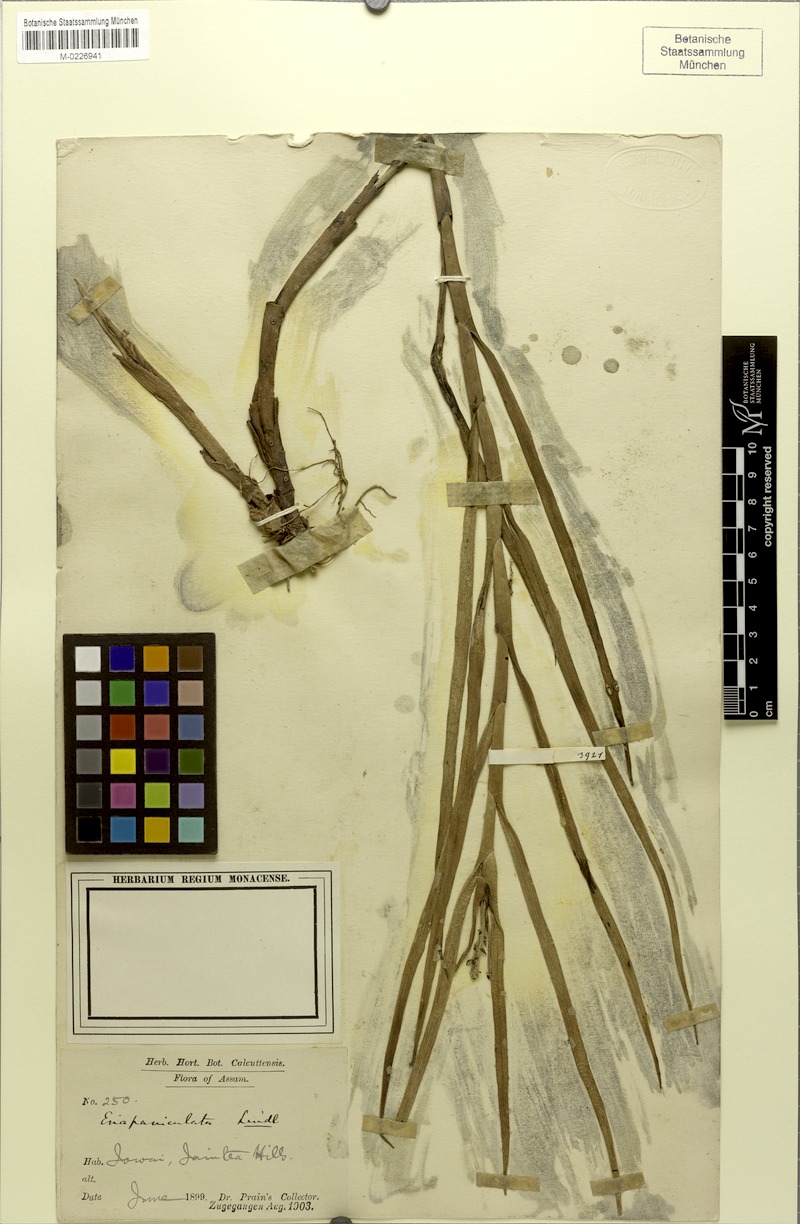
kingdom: Plantae
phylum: Tracheophyta
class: Liliopsida
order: Asparagales
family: Orchidaceae
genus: Mycaranthes
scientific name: Mycaranthes floribunda
